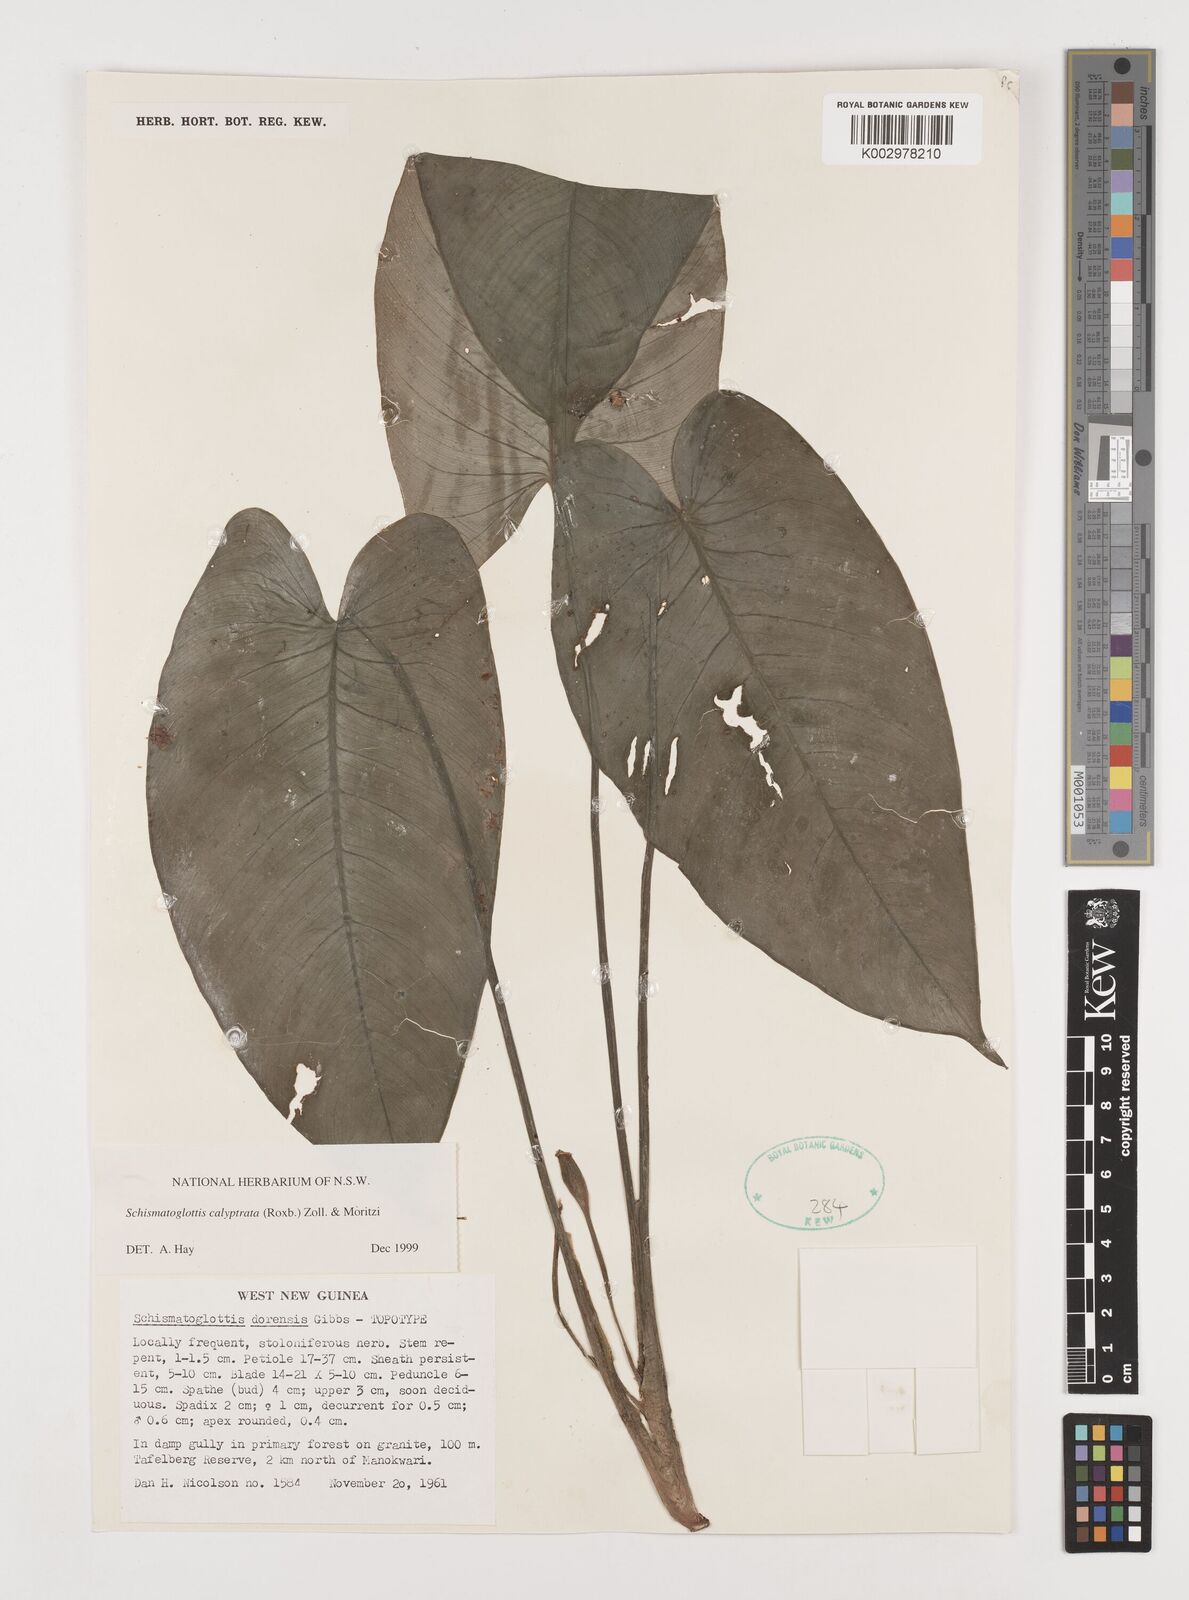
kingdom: Plantae
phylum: Tracheophyta
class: Liliopsida
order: Alismatales
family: Araceae
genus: Schismatoglottis
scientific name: Schismatoglottis calyptrata
